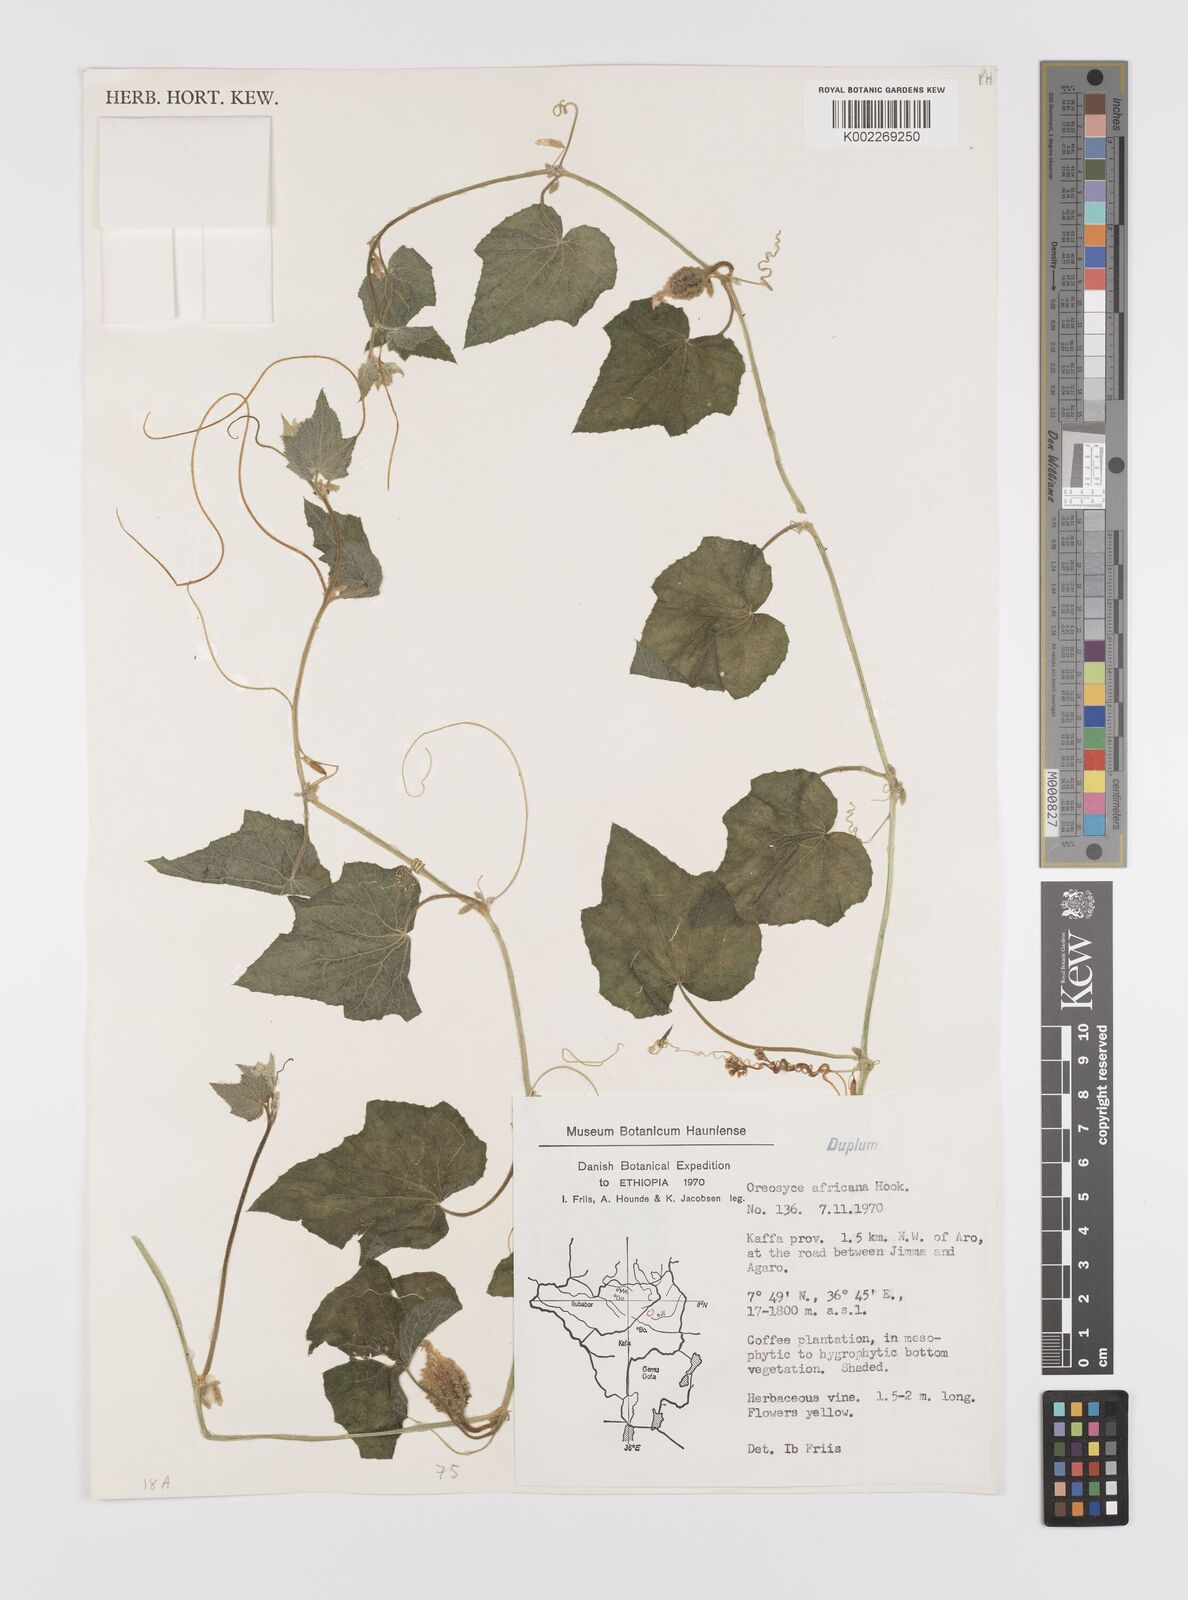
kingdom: Plantae
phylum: Tracheophyta
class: Magnoliopsida
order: Cucurbitales
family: Cucurbitaceae
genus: Cucumis
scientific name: Cucumis oreosyce
